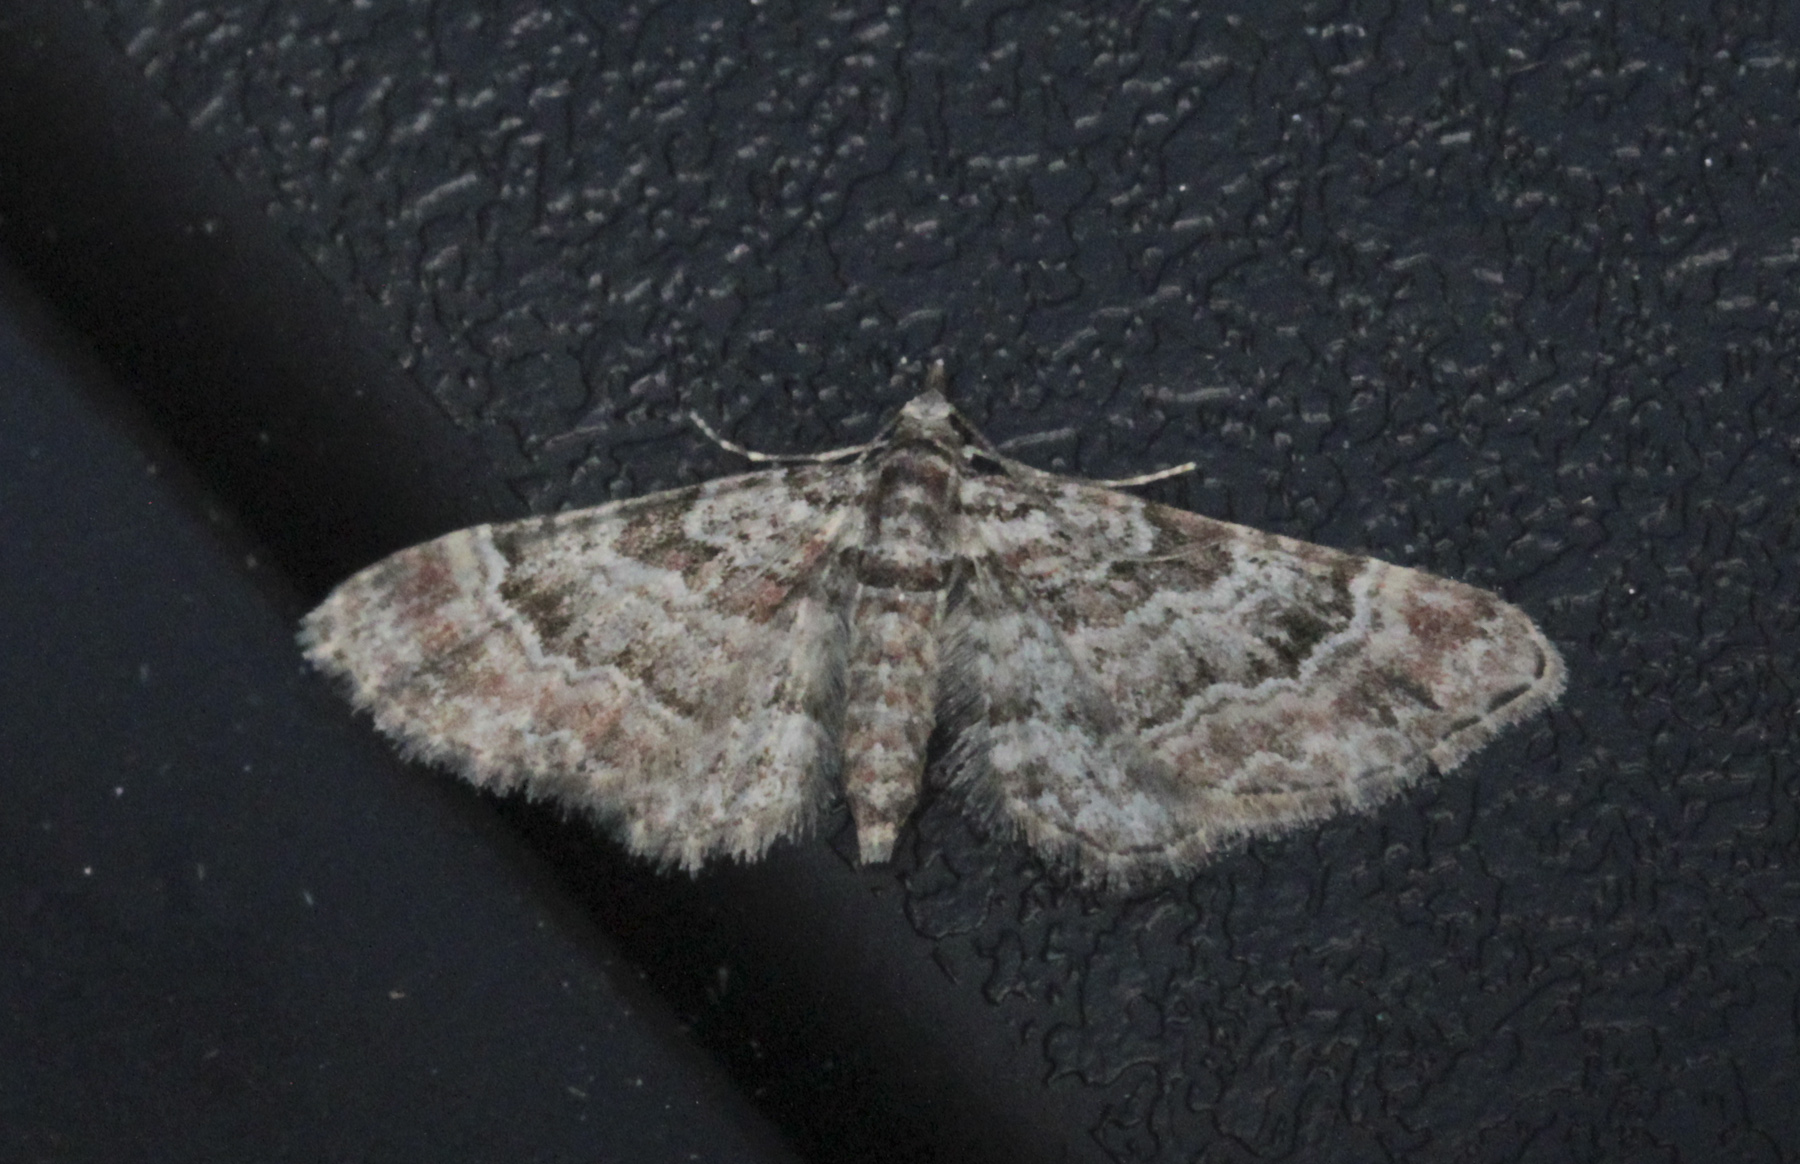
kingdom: Animalia
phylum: Arthropoda
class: Insecta
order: Lepidoptera
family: Geometridae
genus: Gymnoscelis
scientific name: Gymnoscelis rufifasciata
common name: Double-striped pug
